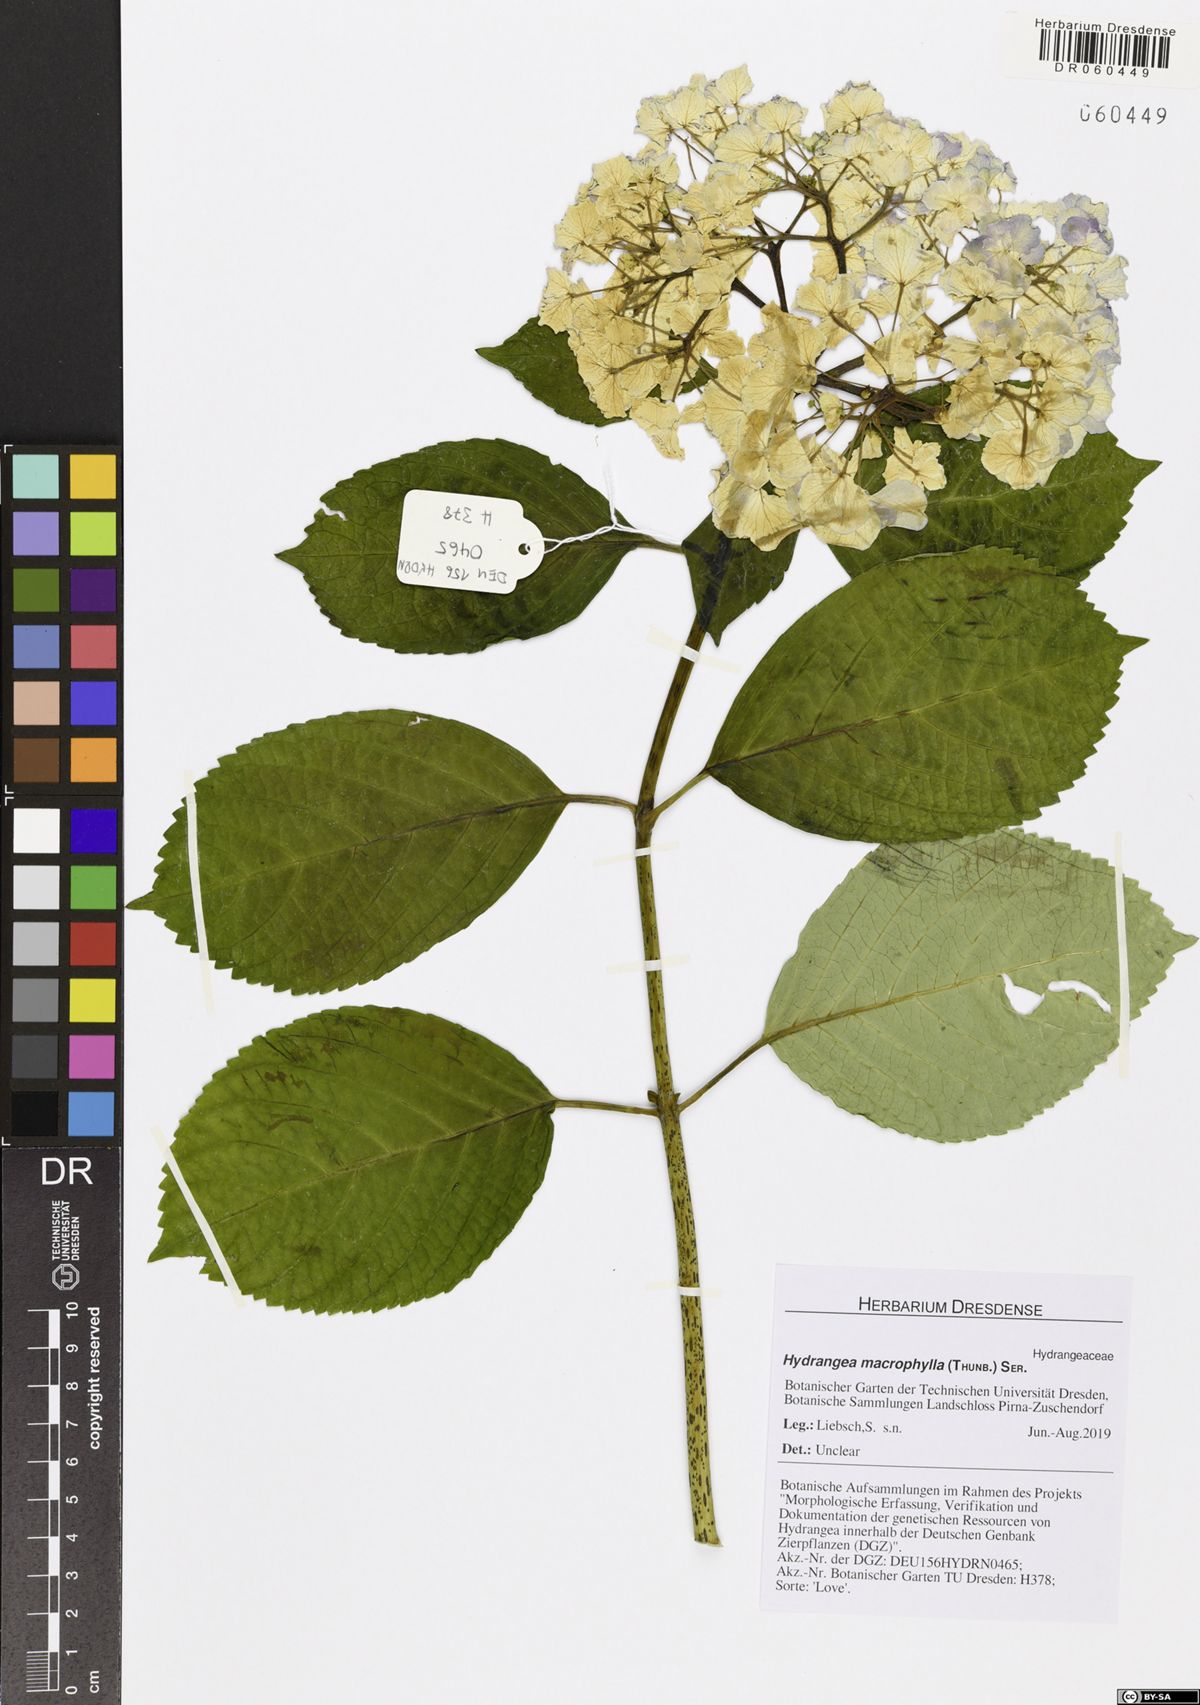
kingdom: Plantae
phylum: Tracheophyta
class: Magnoliopsida
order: Cornales
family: Hydrangeaceae
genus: Hydrangea
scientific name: Hydrangea macrophylla
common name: Hydrangea
